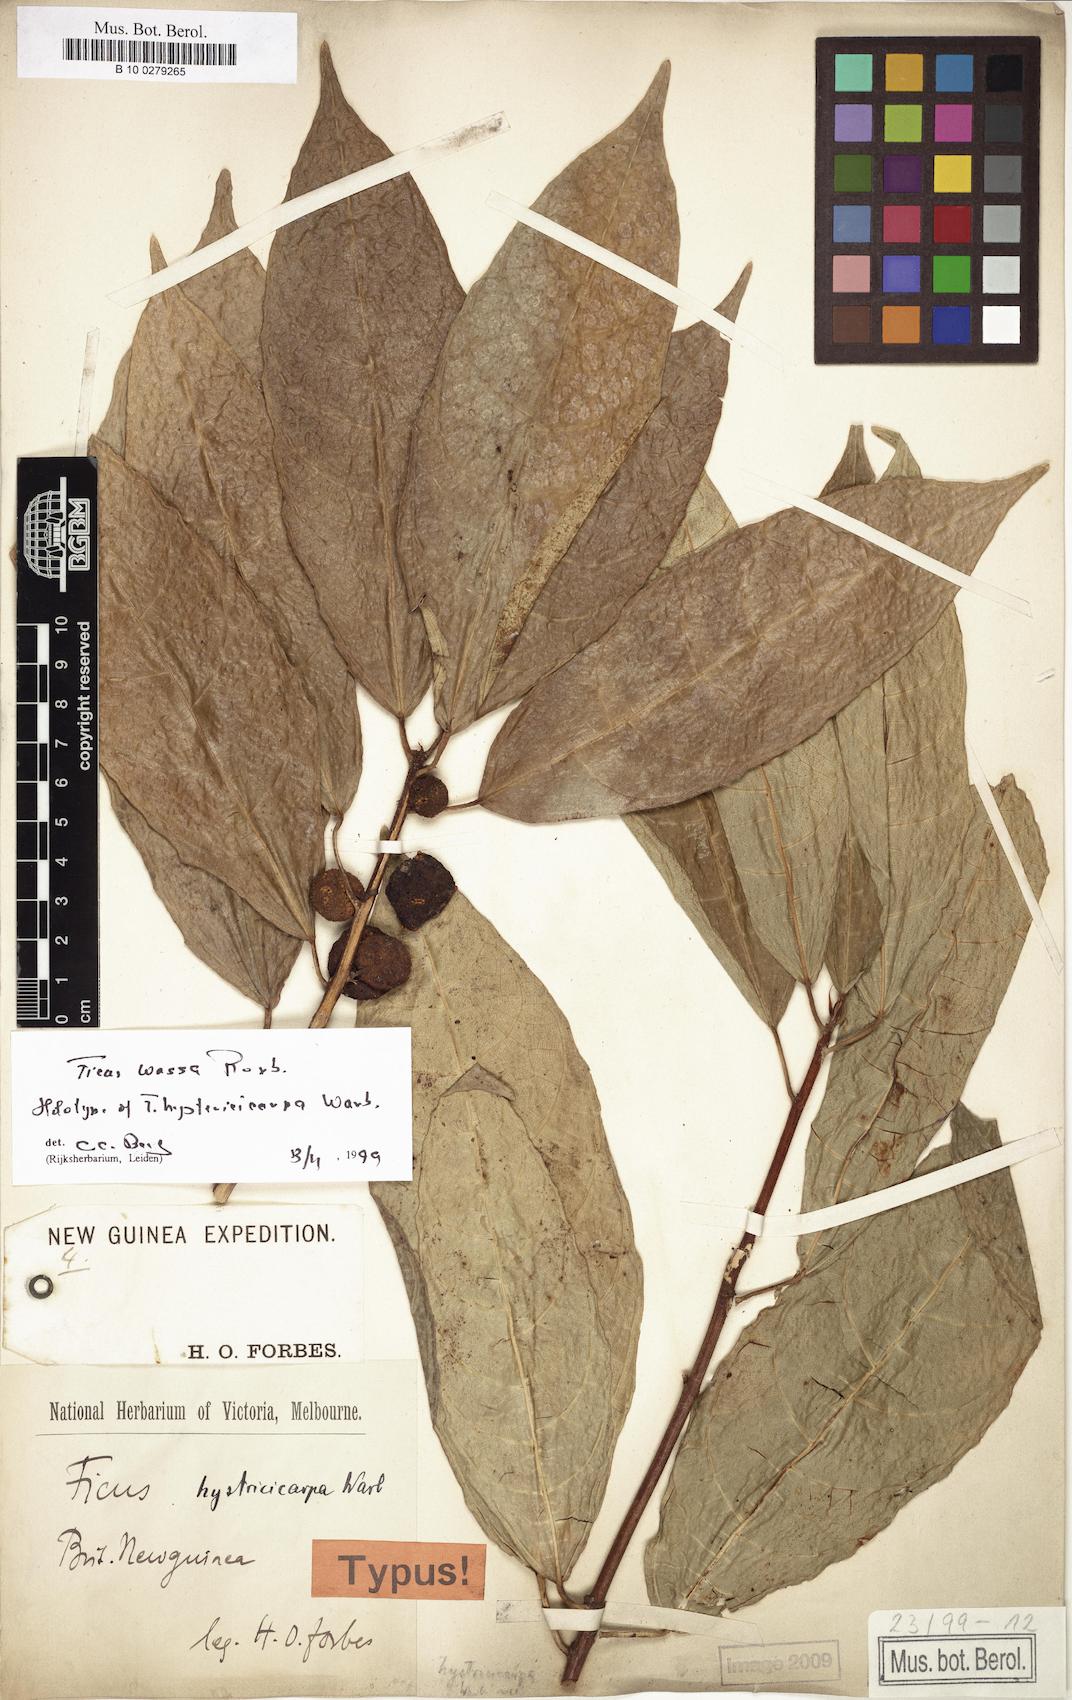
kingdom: Plantae
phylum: Tracheophyta
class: Magnoliopsida
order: Rosales
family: Moraceae
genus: Ficus
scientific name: Ficus wassa
